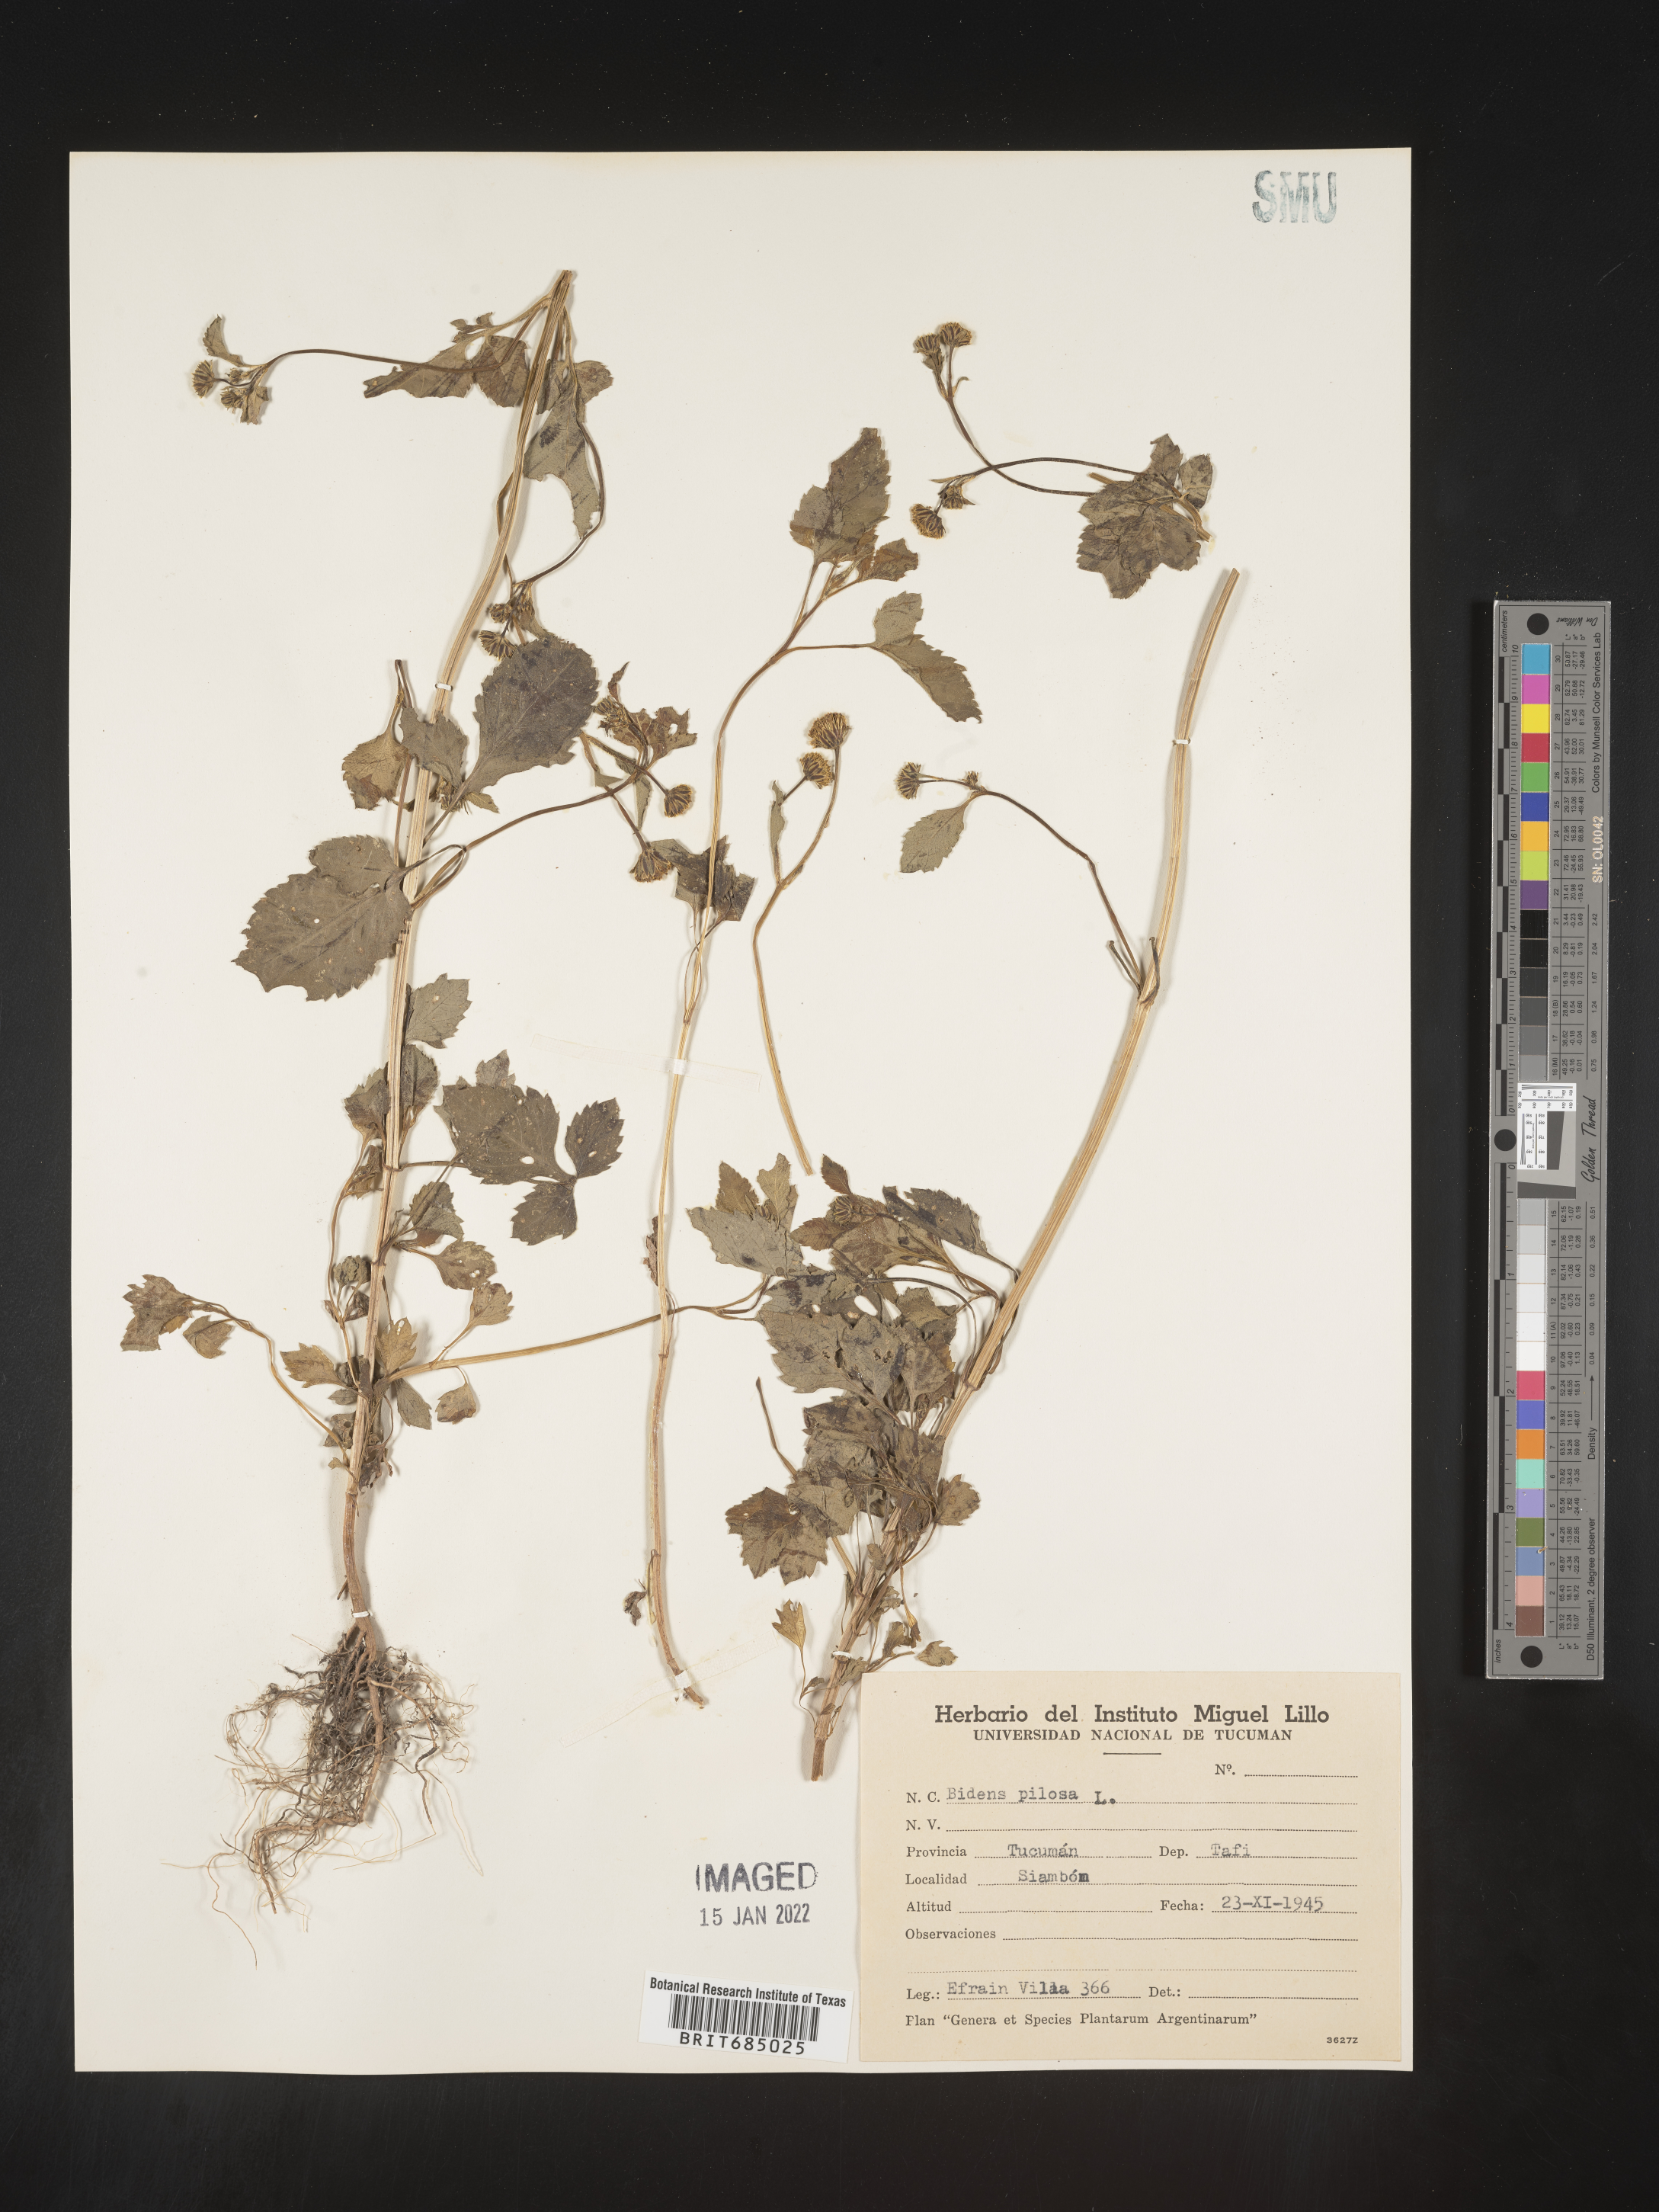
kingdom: Plantae
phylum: Tracheophyta
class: Magnoliopsida
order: Asterales
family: Asteraceae
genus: Bidens
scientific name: Bidens
